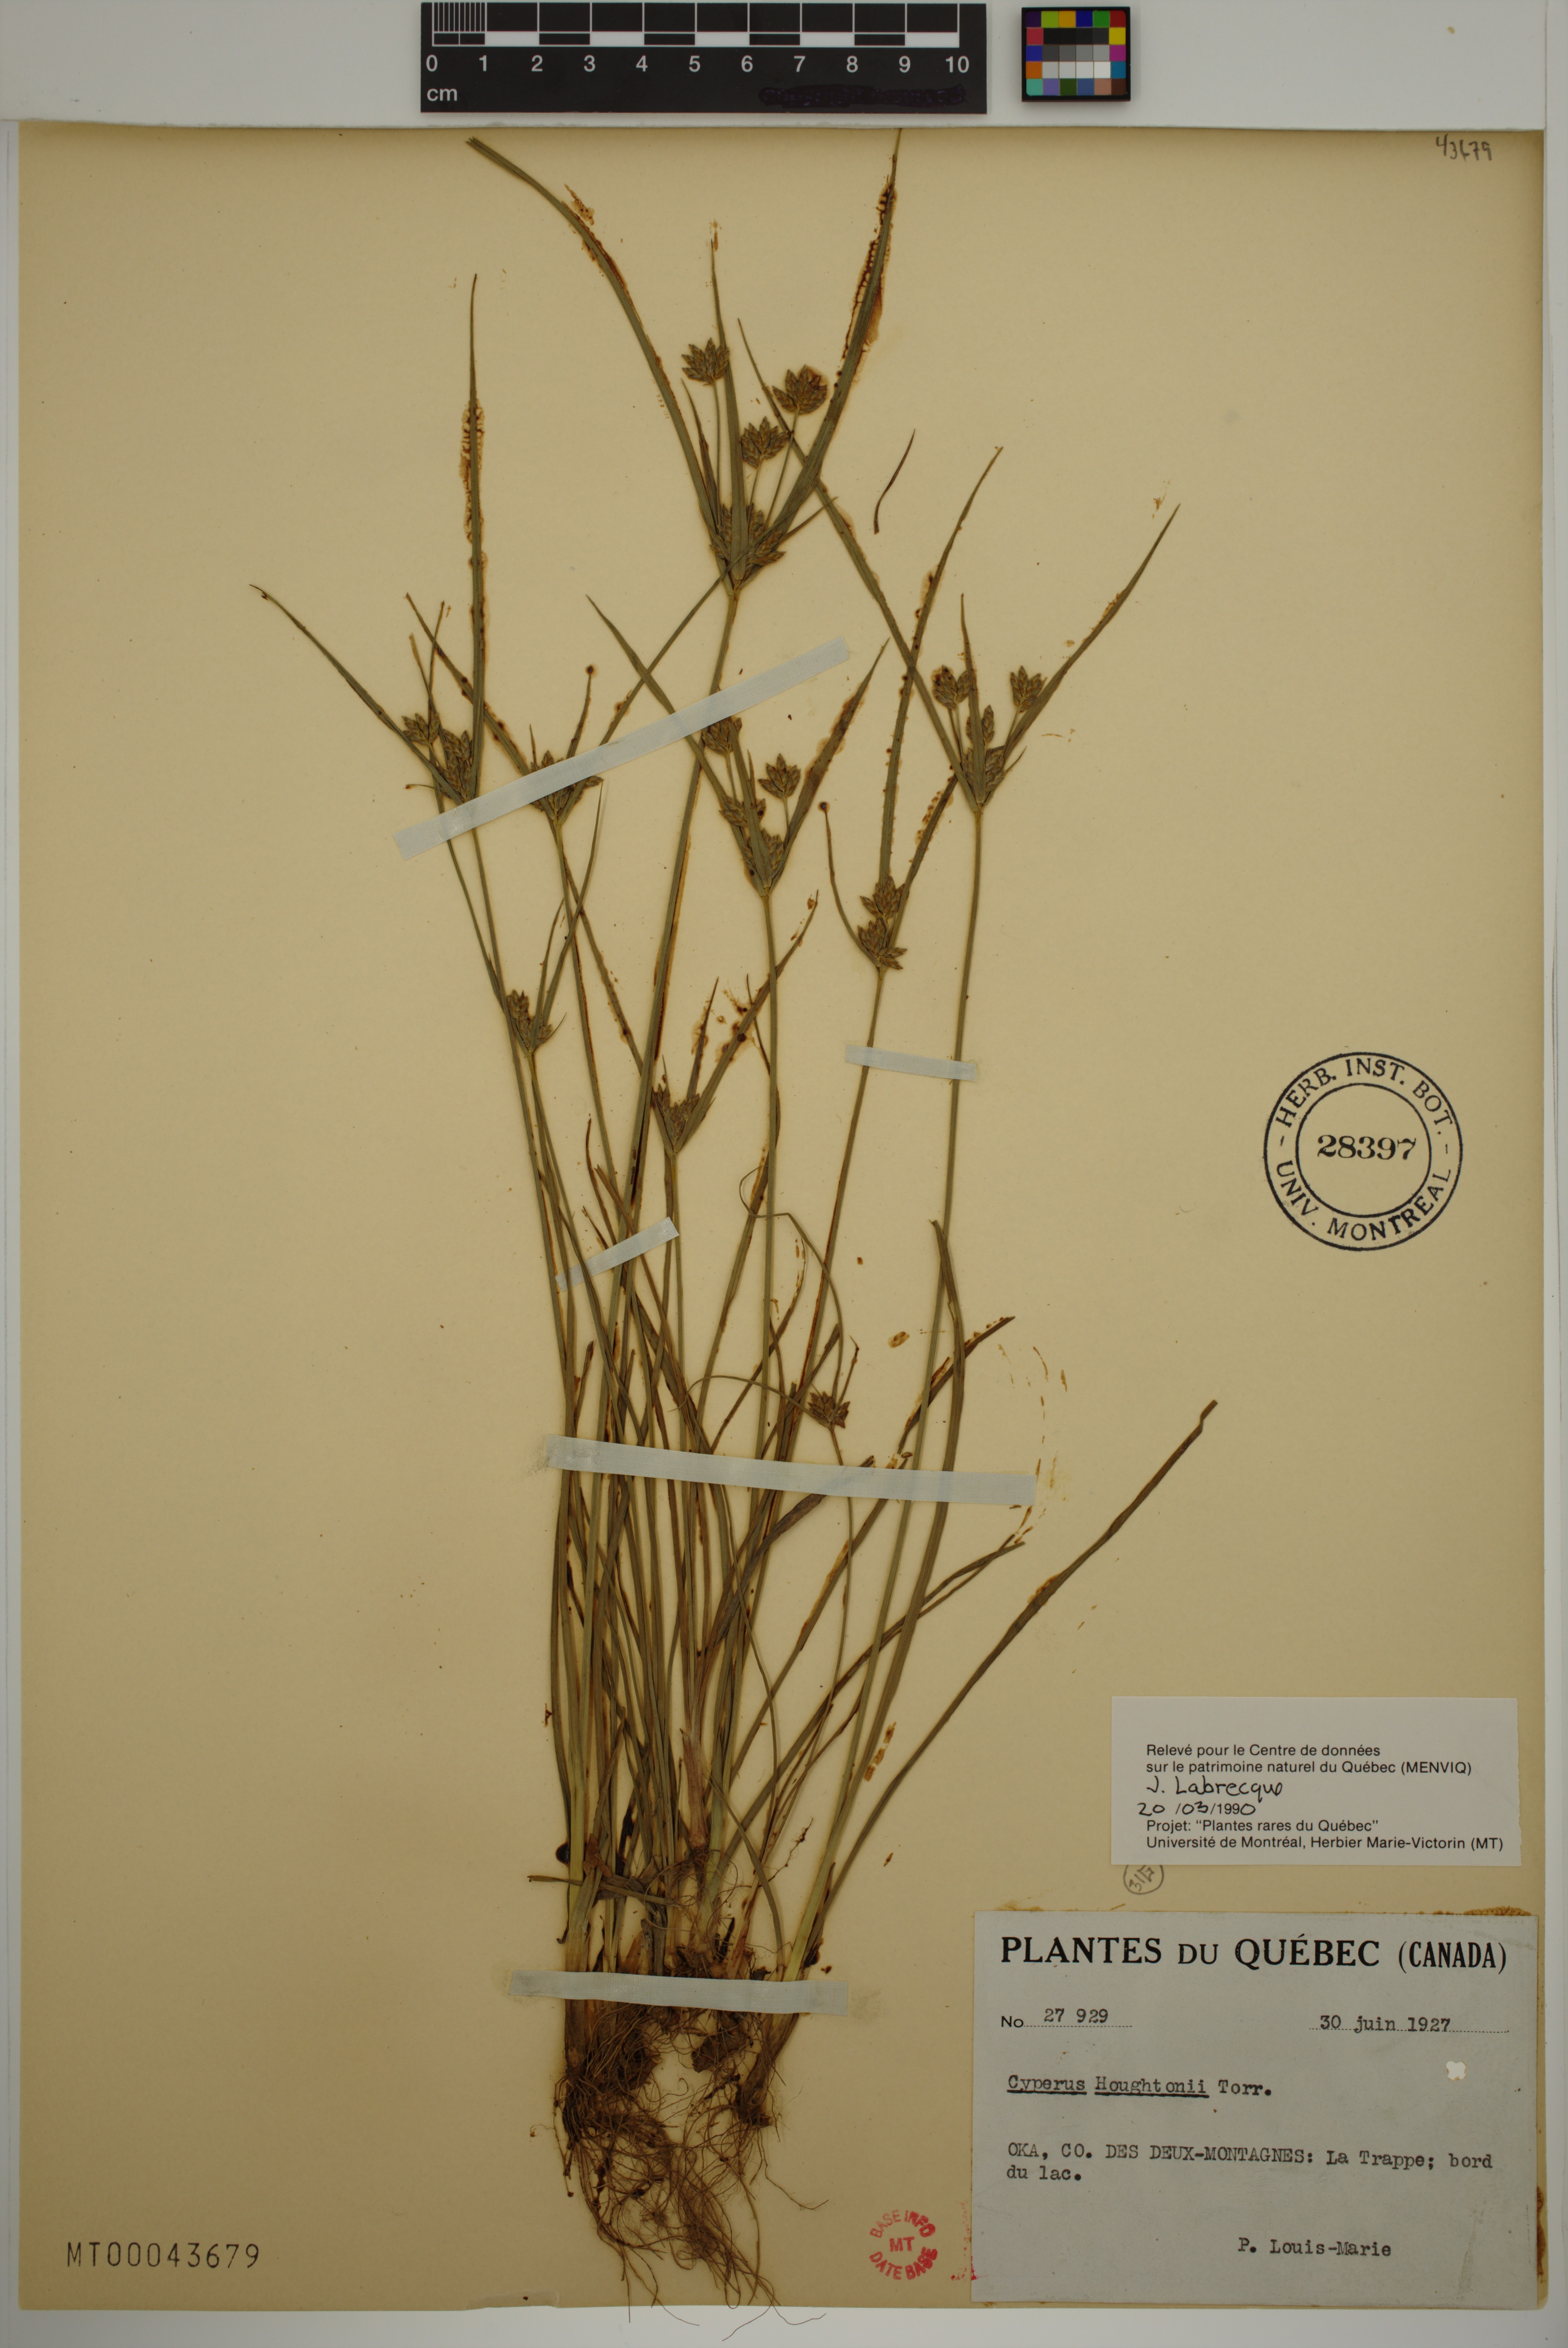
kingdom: Plantae
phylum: Tracheophyta
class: Liliopsida
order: Poales
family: Cyperaceae
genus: Cyperus
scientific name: Cyperus houghtonii
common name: Houghton's cyperus
